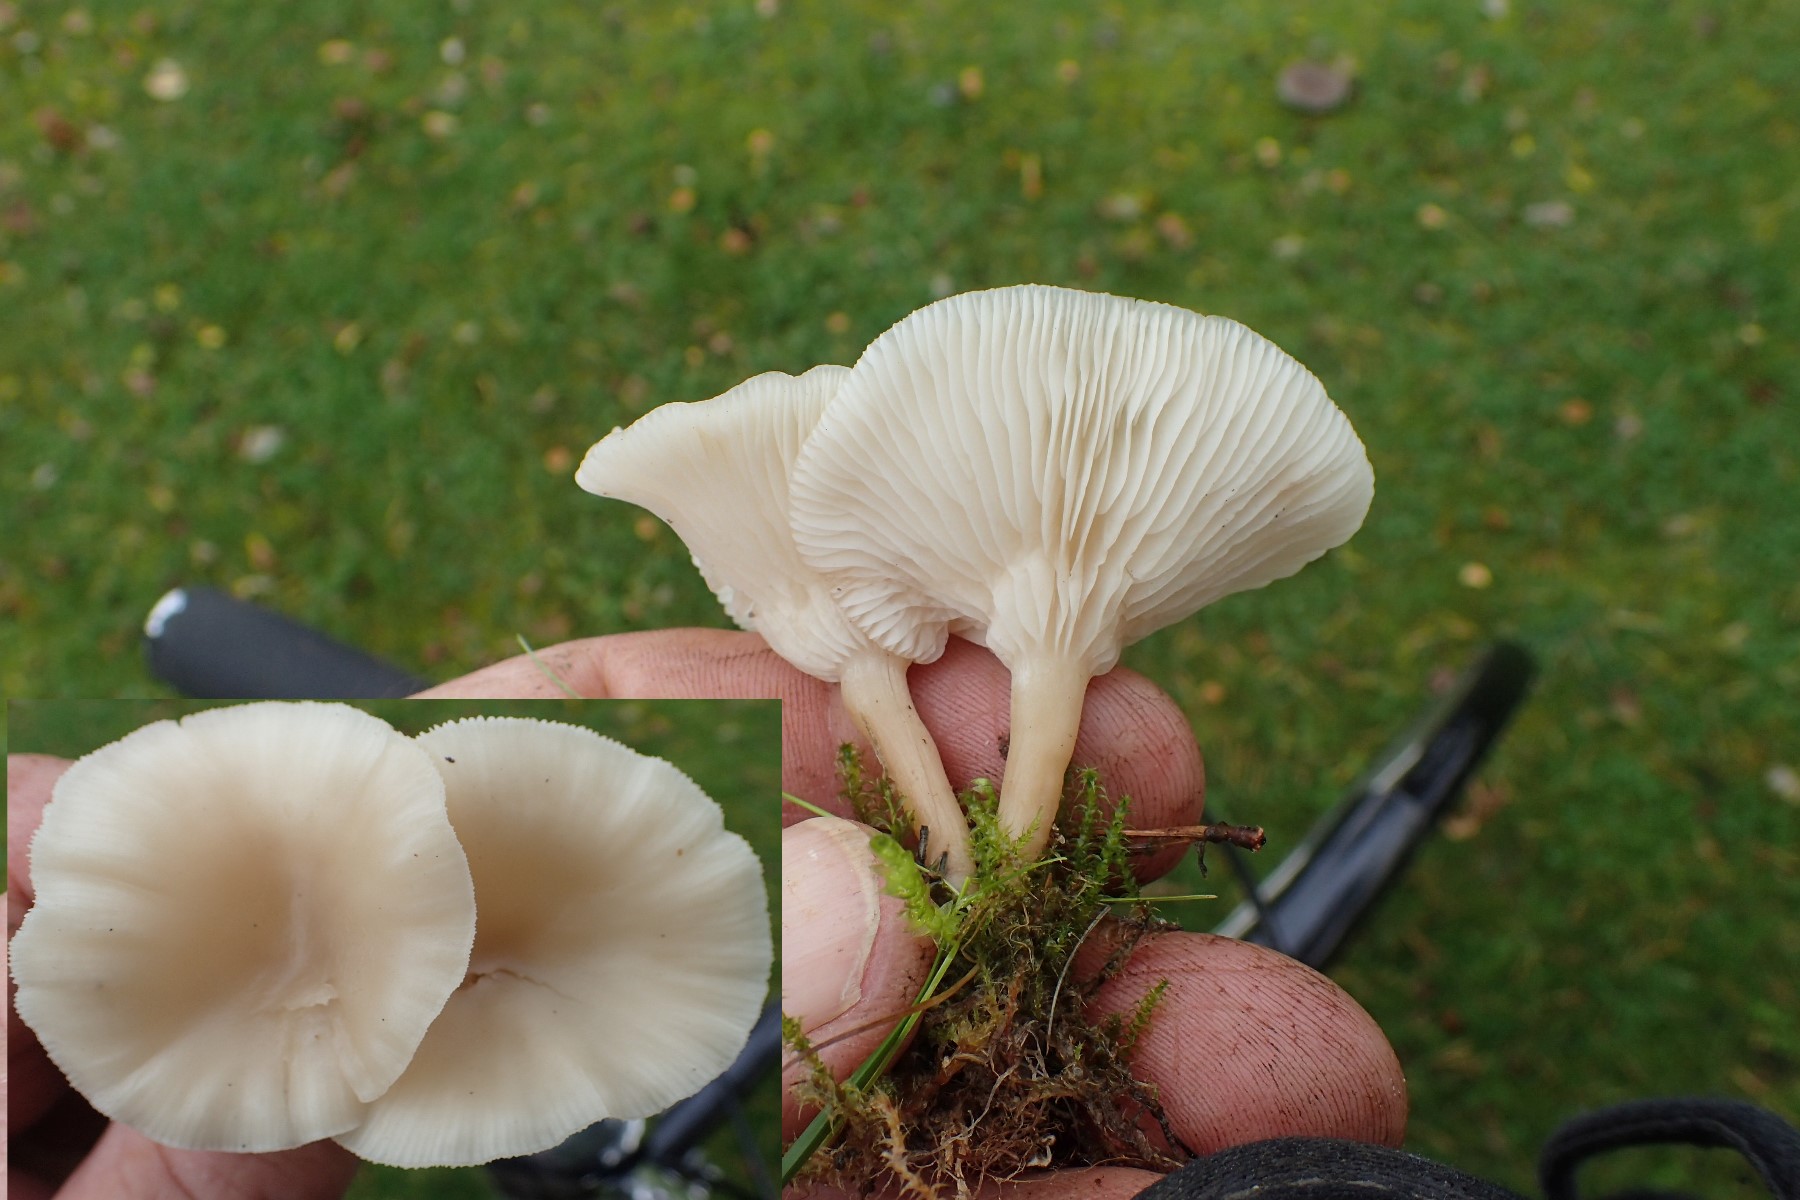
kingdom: Fungi
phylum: Basidiomycota
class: Agaricomycetes
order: Agaricales
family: Tricholomataceae
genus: Clitocybe
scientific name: Clitocybe
